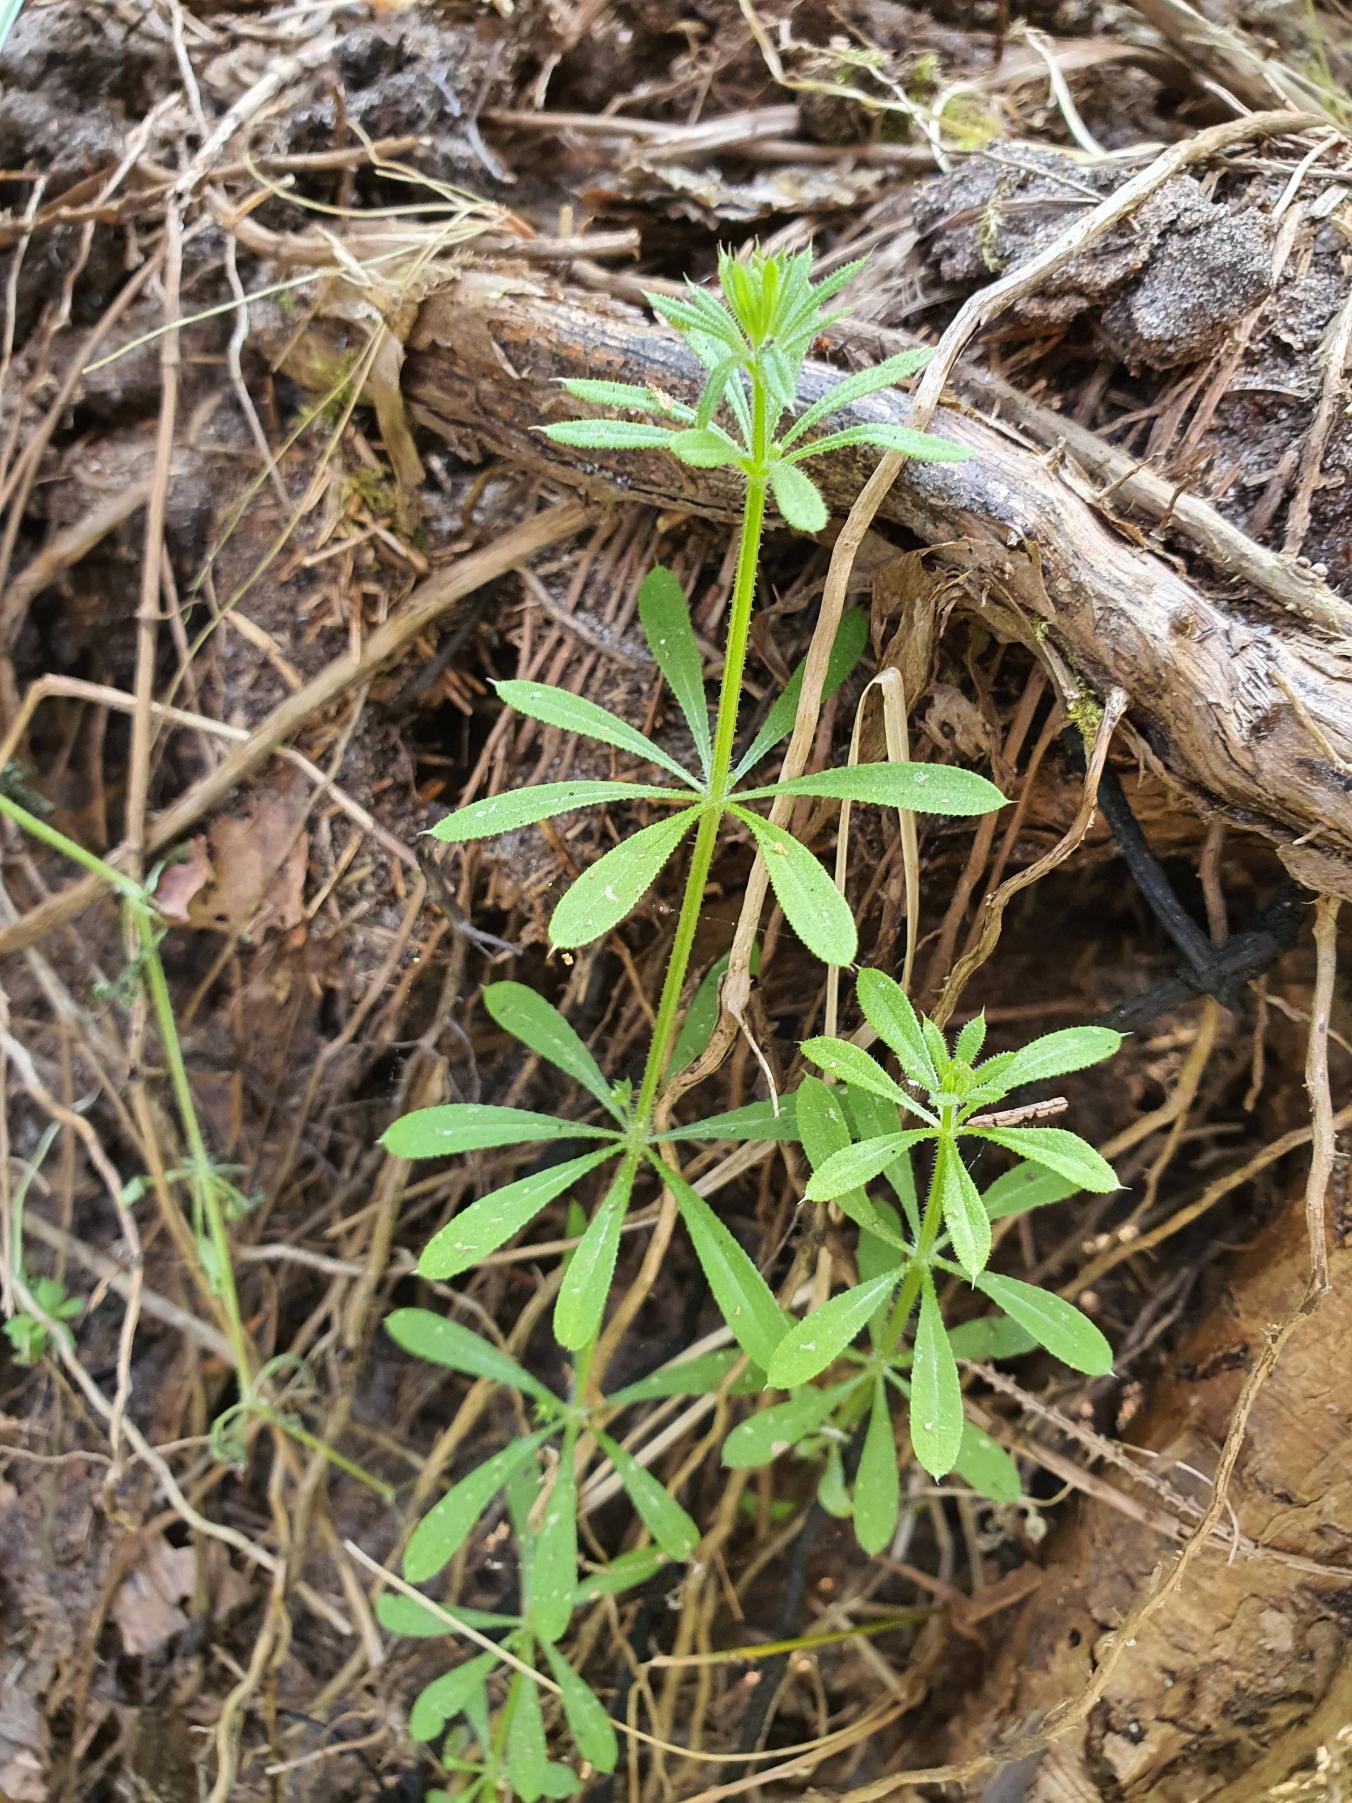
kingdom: Plantae
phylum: Tracheophyta
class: Magnoliopsida
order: Gentianales
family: Rubiaceae
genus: Galium
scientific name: Galium aparine
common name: Burre-snerre
